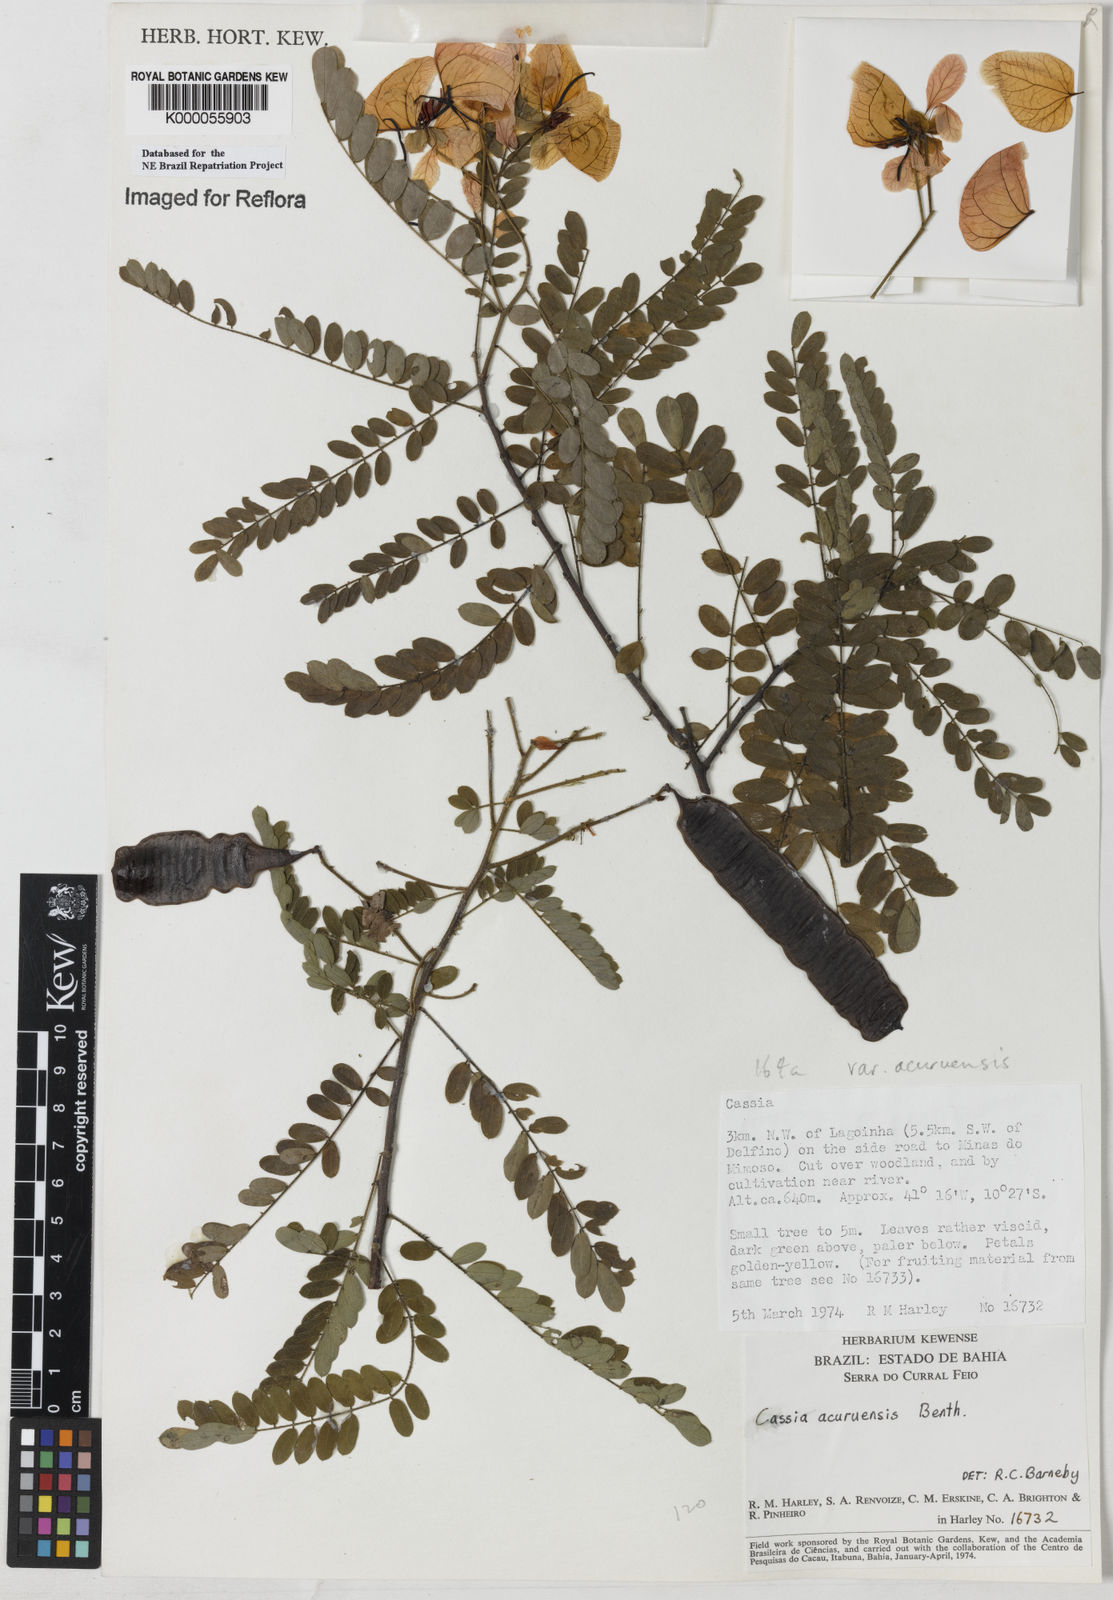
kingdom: Plantae
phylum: Tracheophyta
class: Magnoliopsida
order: Fabales
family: Fabaceae
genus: Senna
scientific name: Senna acuruensis
